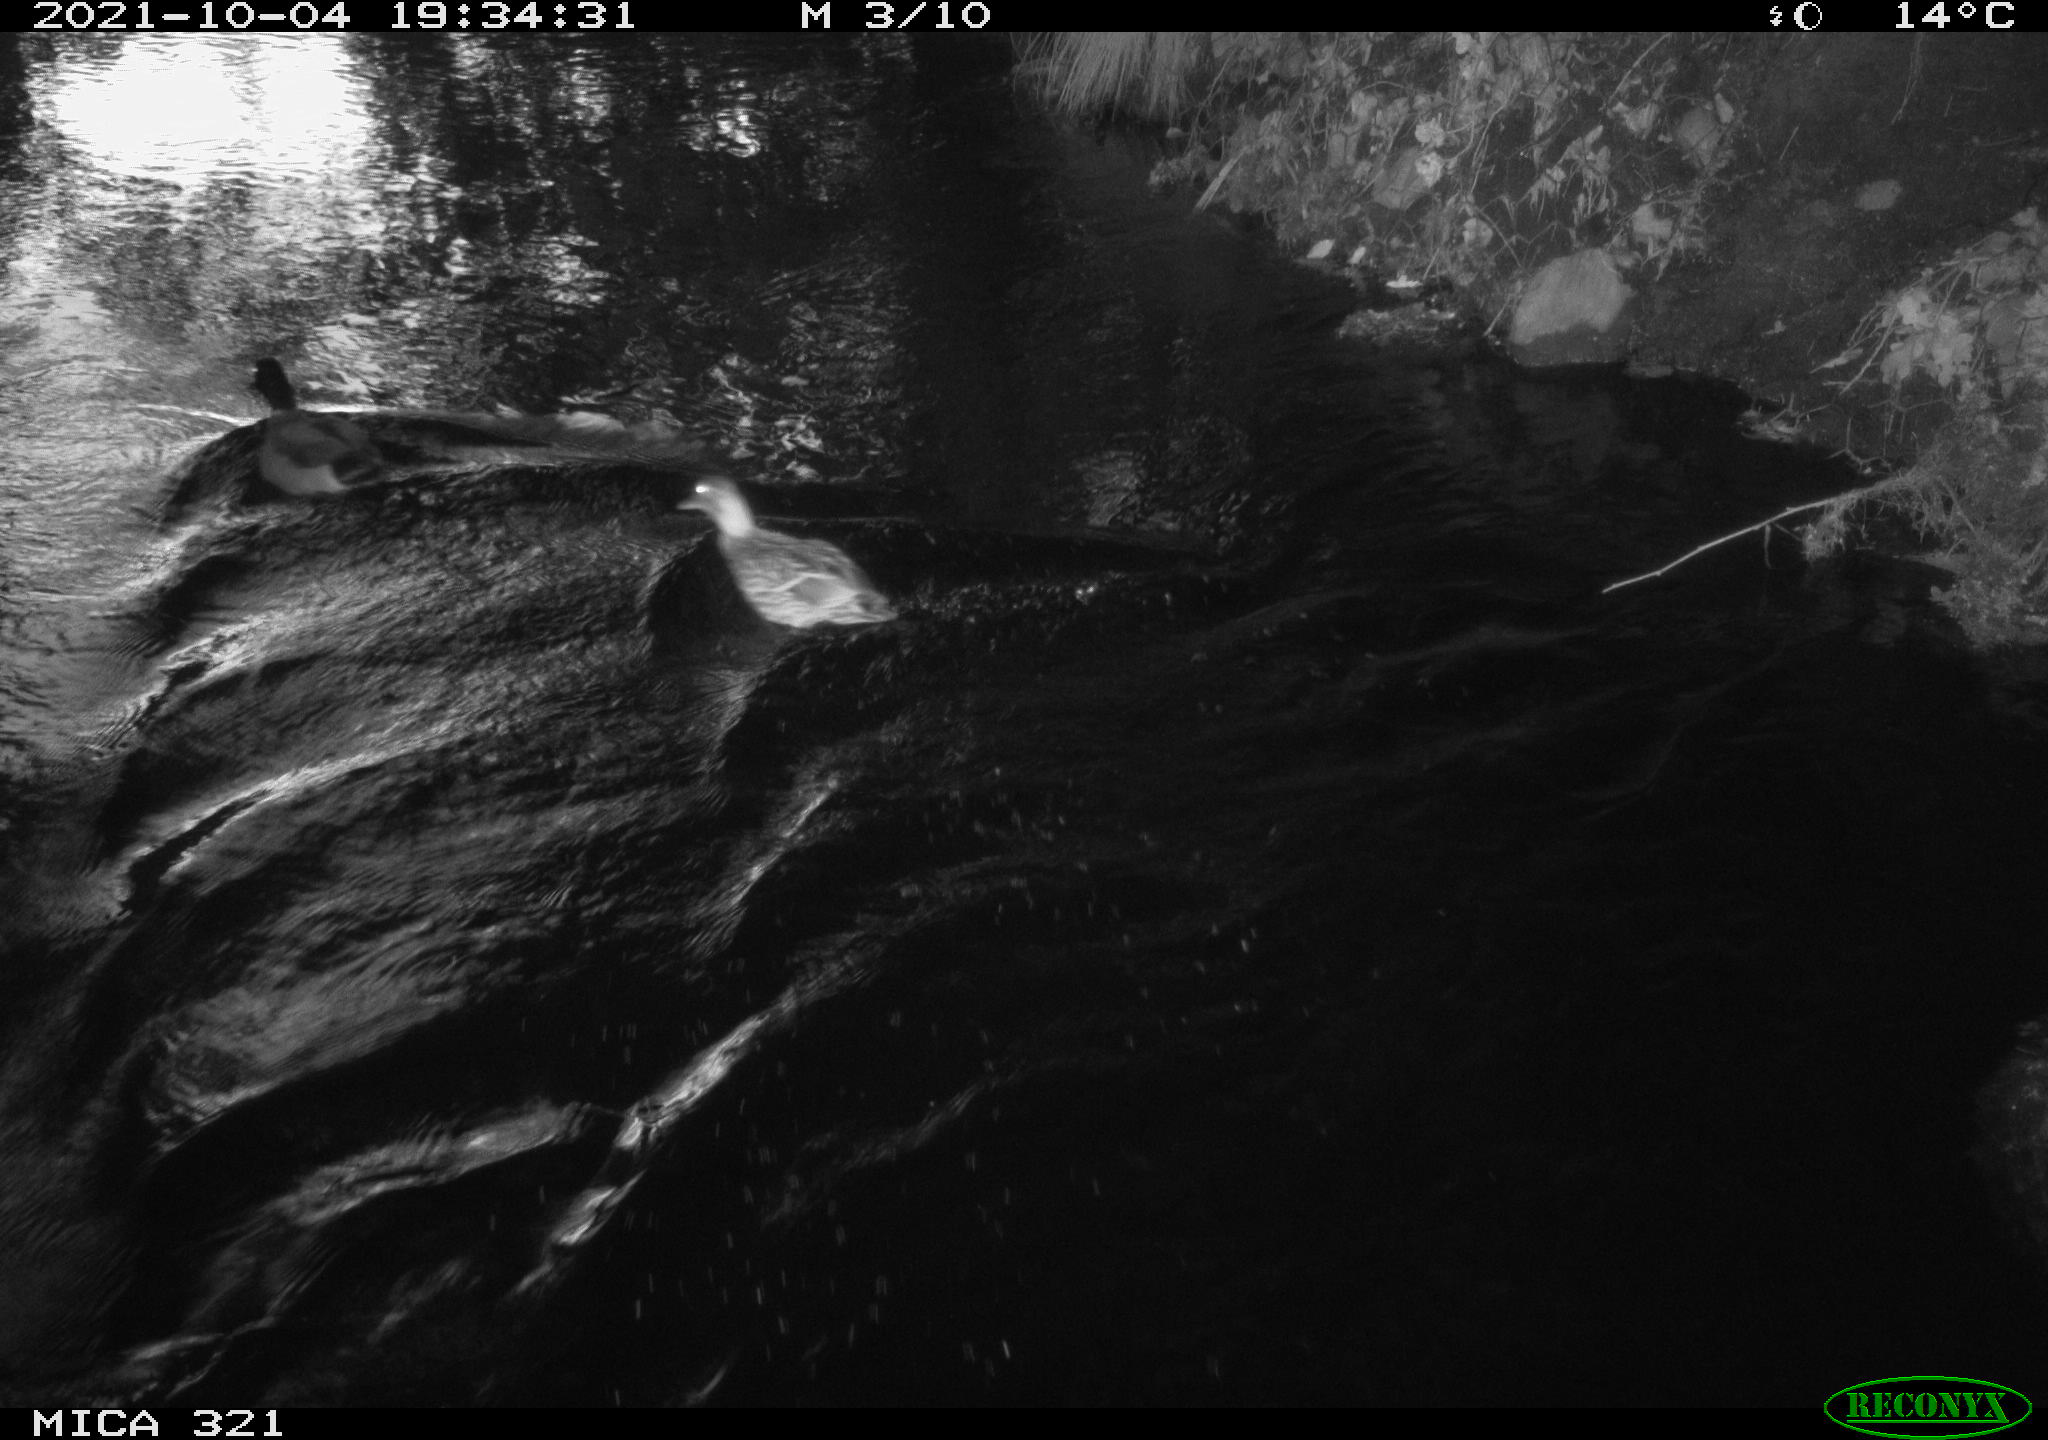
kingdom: Animalia
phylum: Chordata
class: Aves
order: Anseriformes
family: Anatidae
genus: Anas
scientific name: Anas platyrhynchos
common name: Mallard
